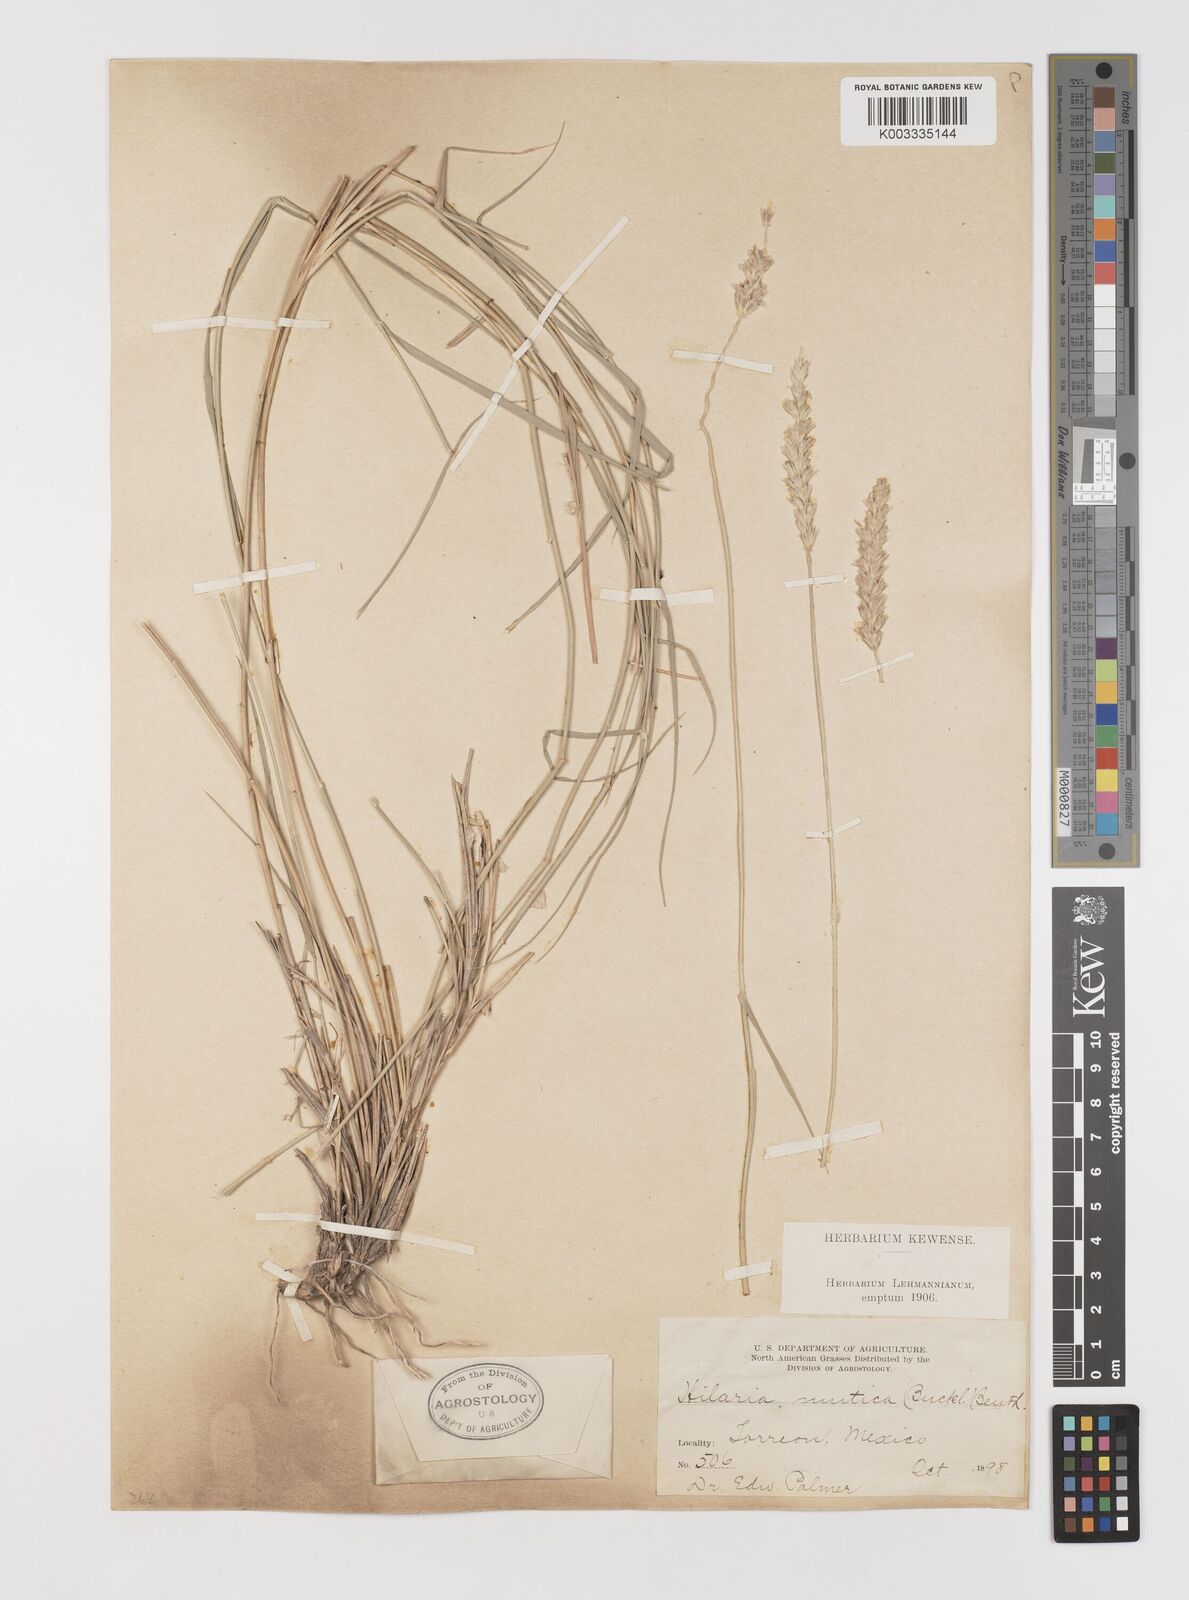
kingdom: Plantae
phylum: Tracheophyta
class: Liliopsida
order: Poales
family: Poaceae
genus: Hilaria
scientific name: Hilaria mutica
